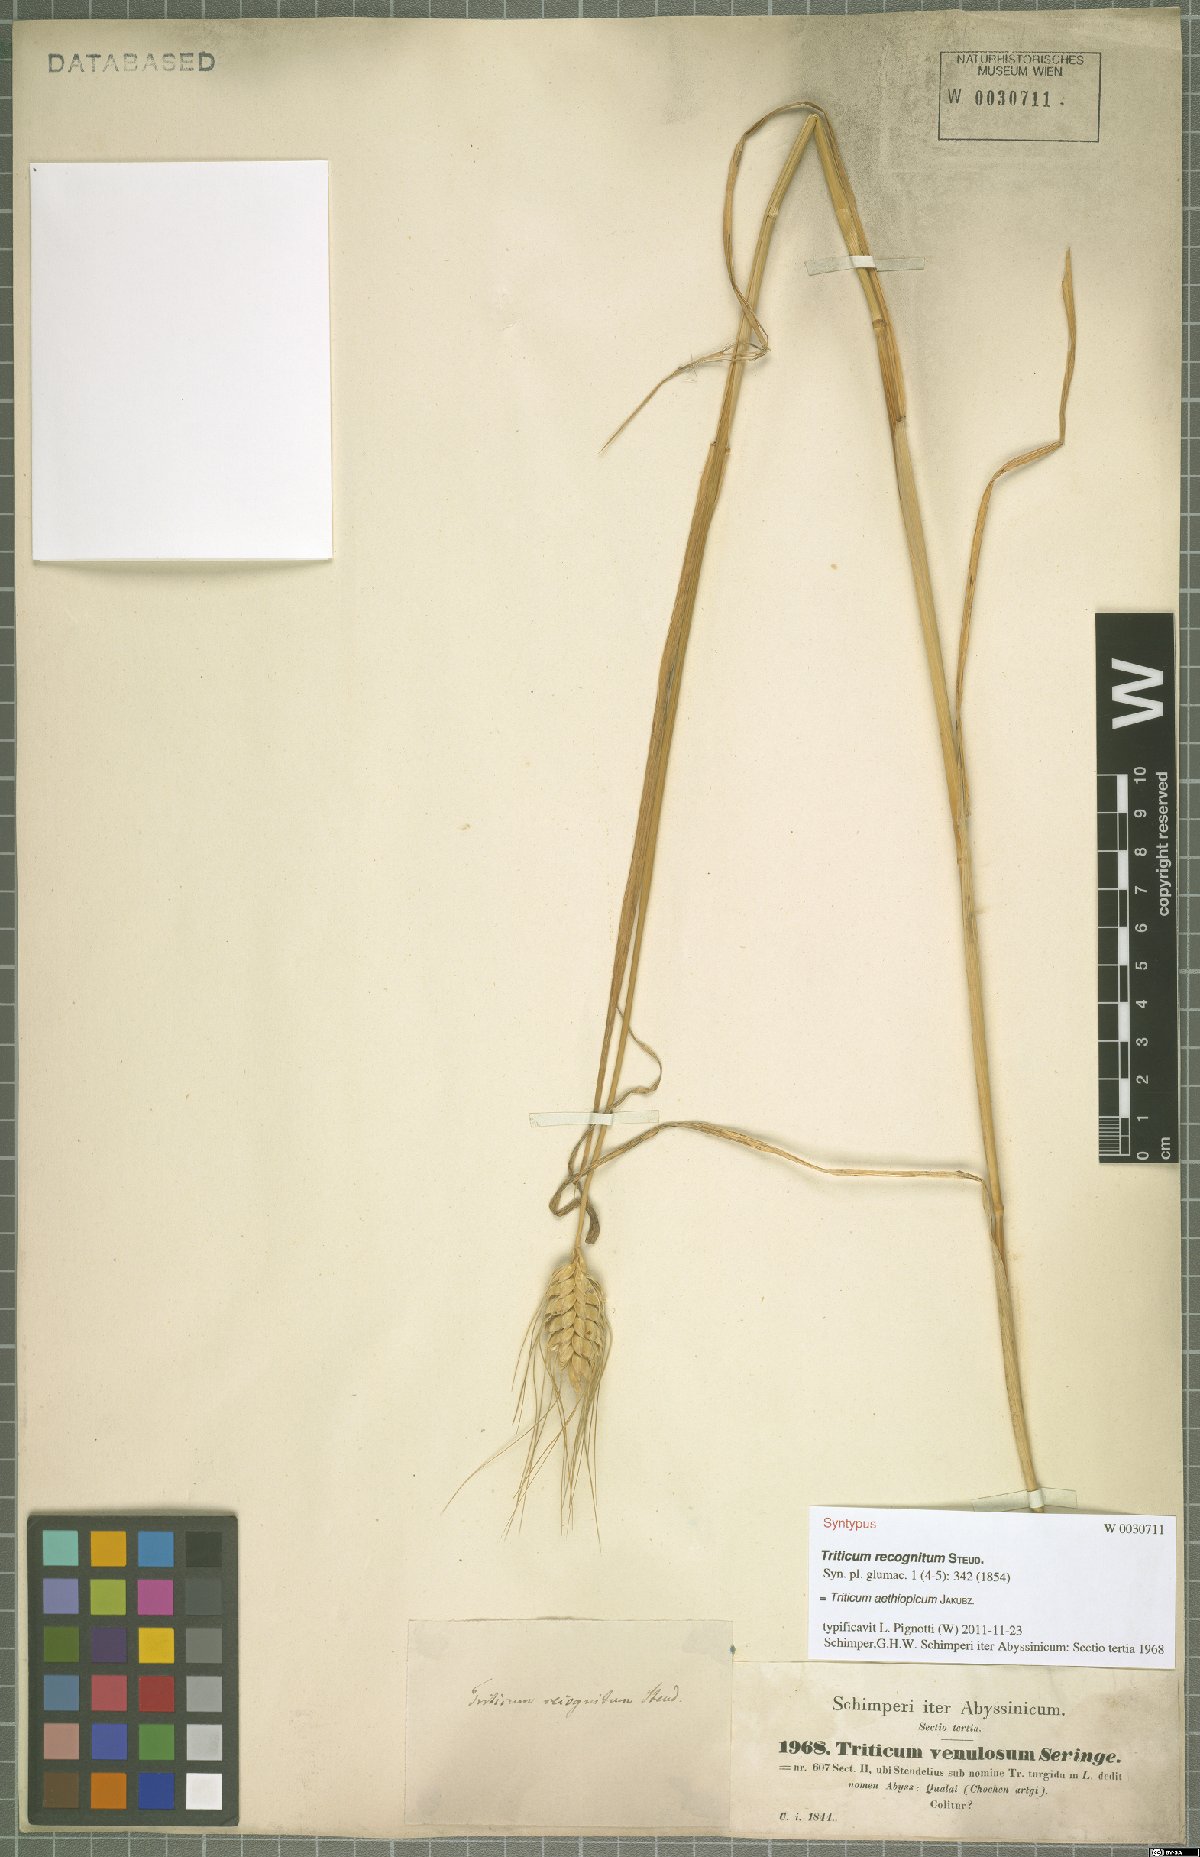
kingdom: Plantae
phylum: Tracheophyta
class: Liliopsida
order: Poales
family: Poaceae
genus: Triticum
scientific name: Triticum turgidum
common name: Rivet wheat
